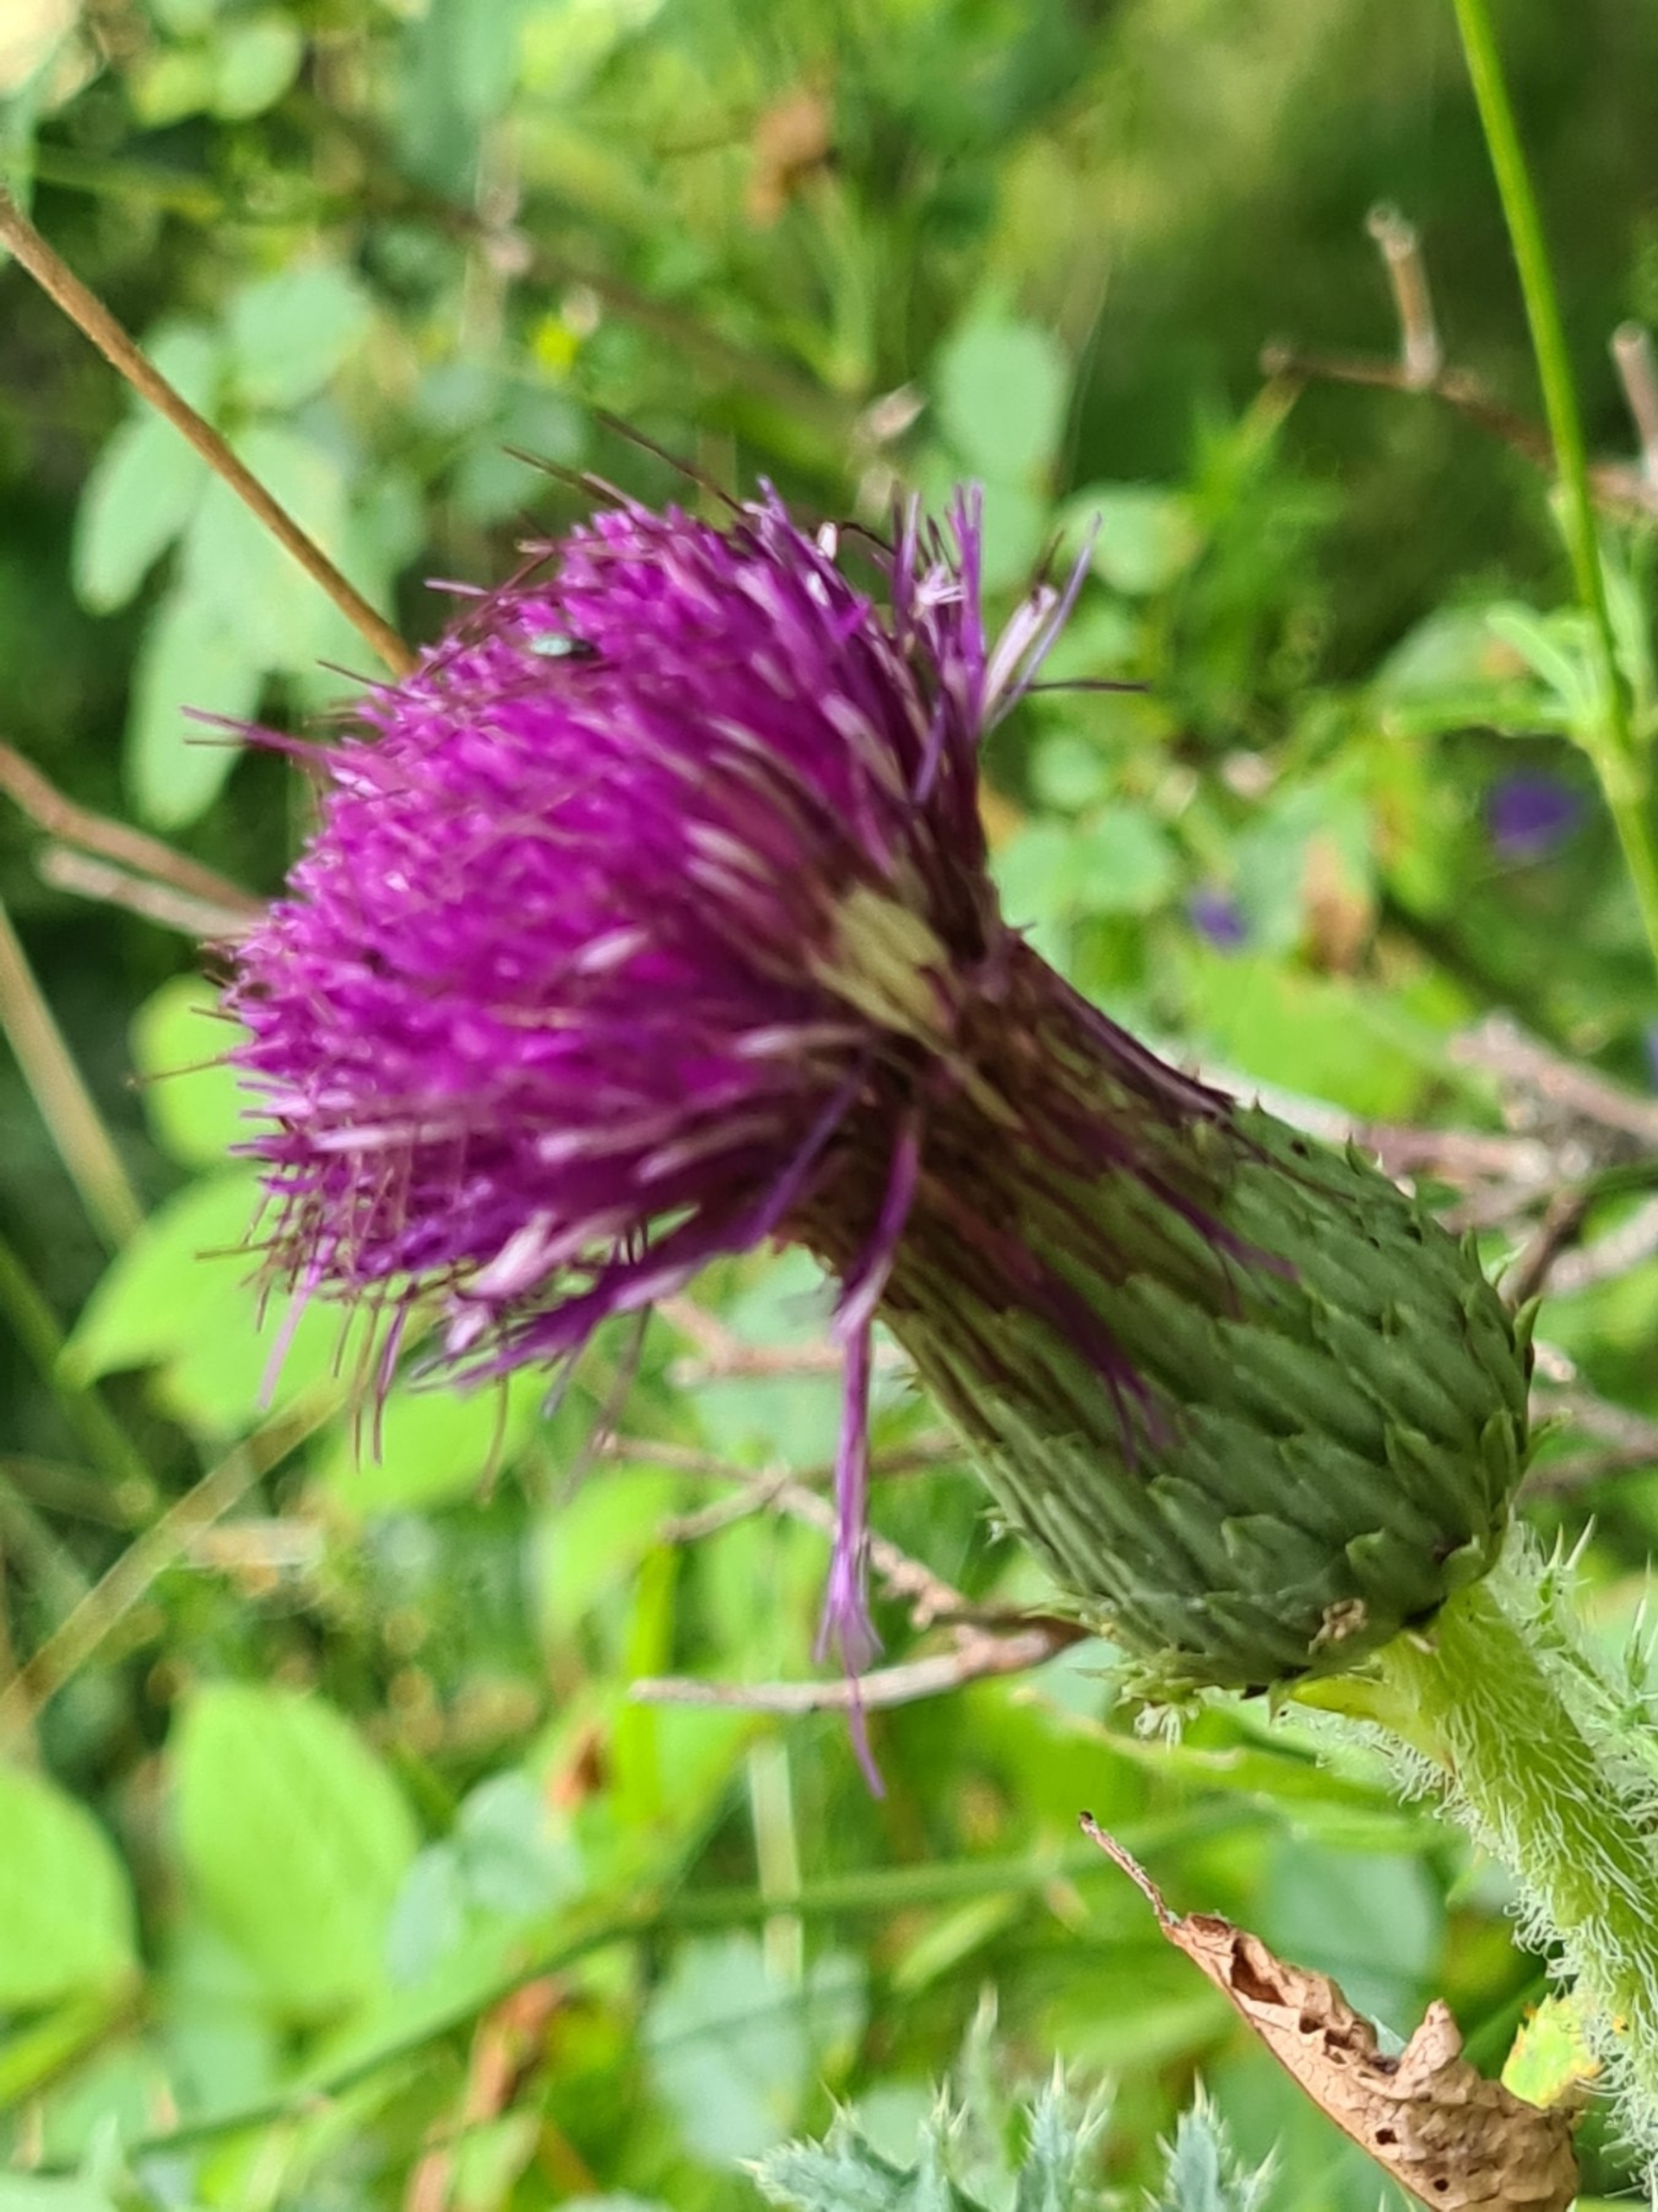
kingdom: Plantae
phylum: Tracheophyta
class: Magnoliopsida
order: Asterales
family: Asteraceae
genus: Cirsium
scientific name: Cirsium acaule
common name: Lav tidsel
